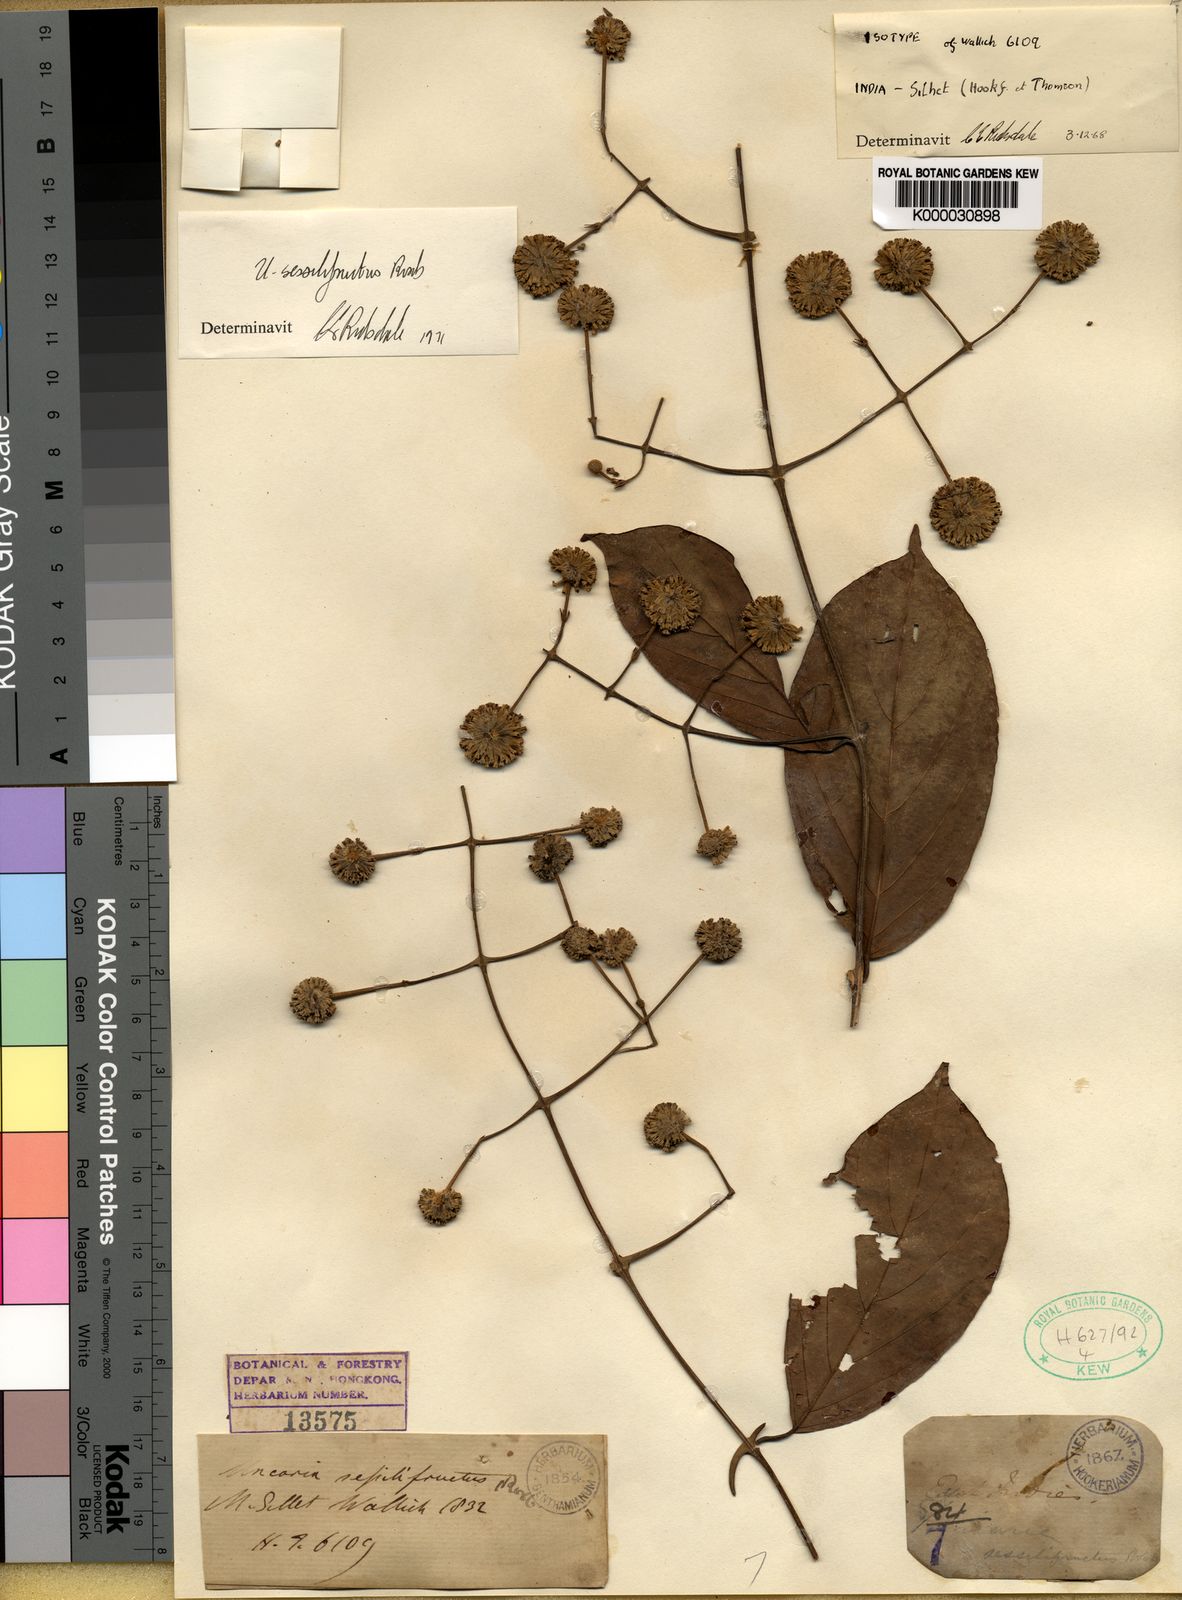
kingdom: Plantae
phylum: Tracheophyta
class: Magnoliopsida
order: Gentianales
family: Rubiaceae
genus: Uncaria
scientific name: Uncaria sessilifructus
